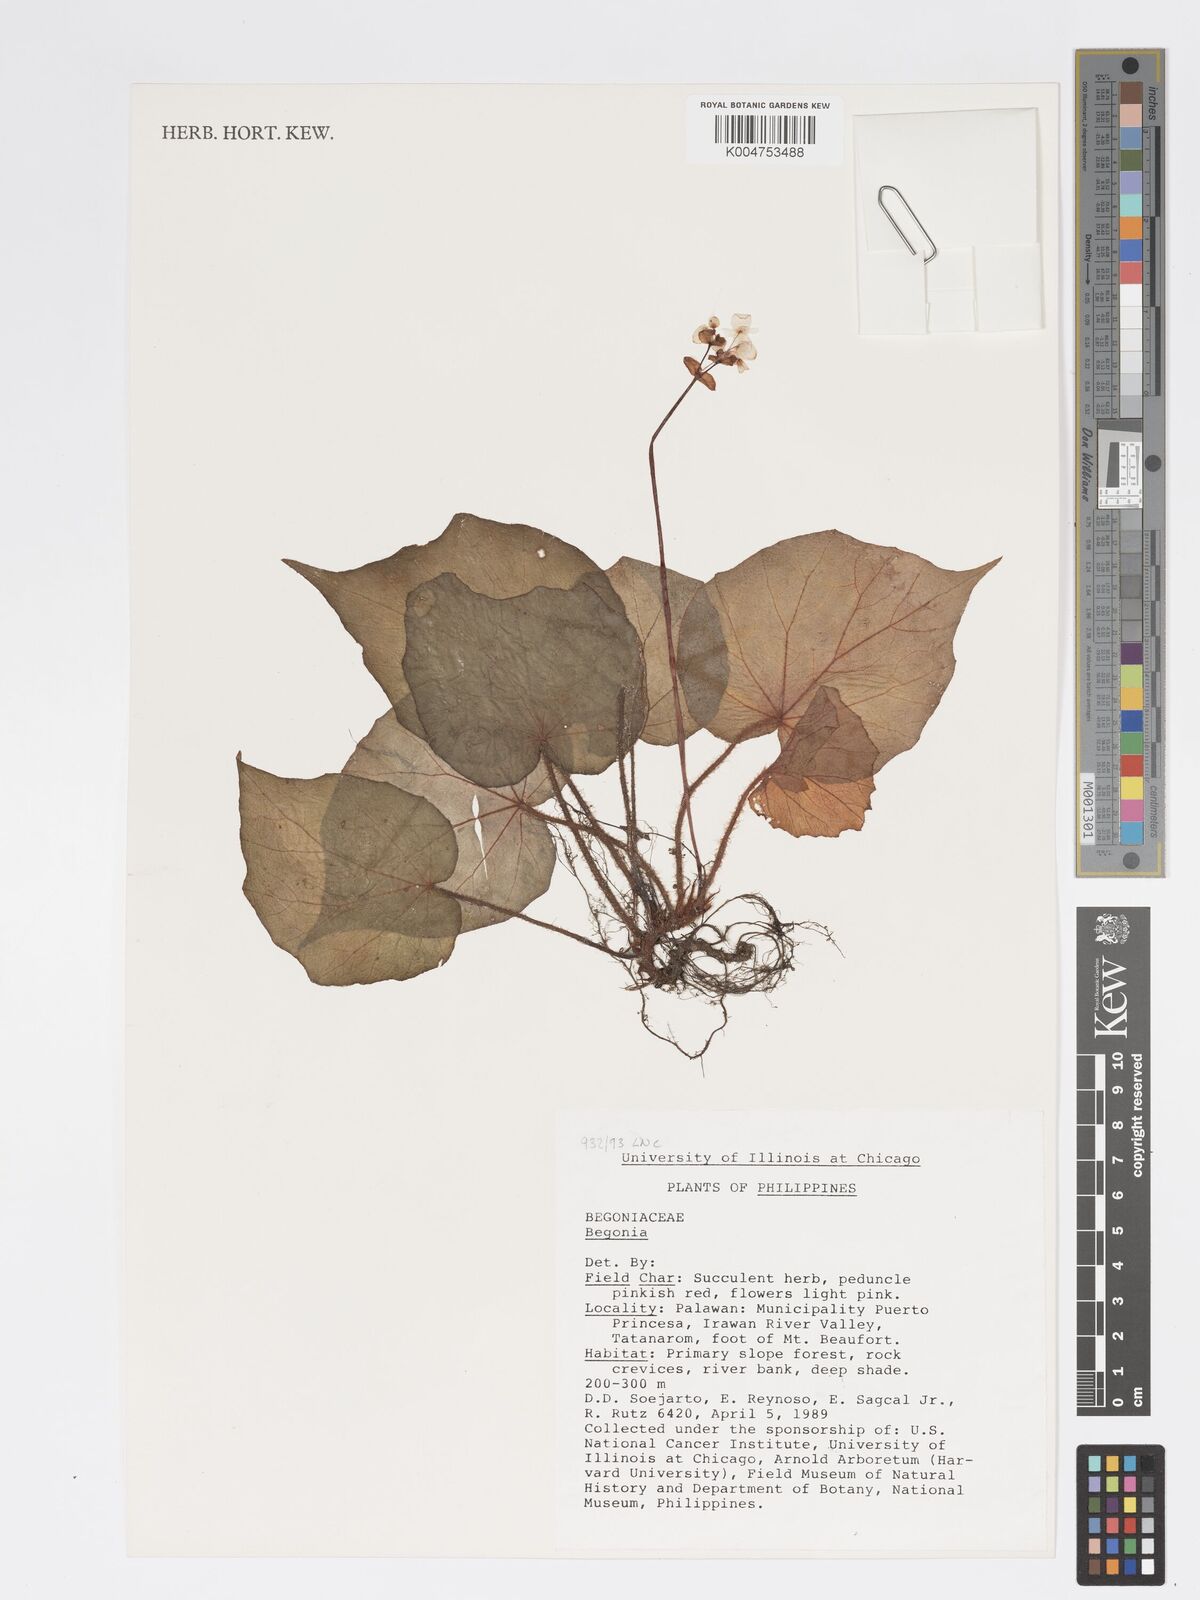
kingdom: Plantae
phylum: Tracheophyta
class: Magnoliopsida
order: Cucurbitales
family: Begoniaceae
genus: Begonia
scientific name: Begonia
